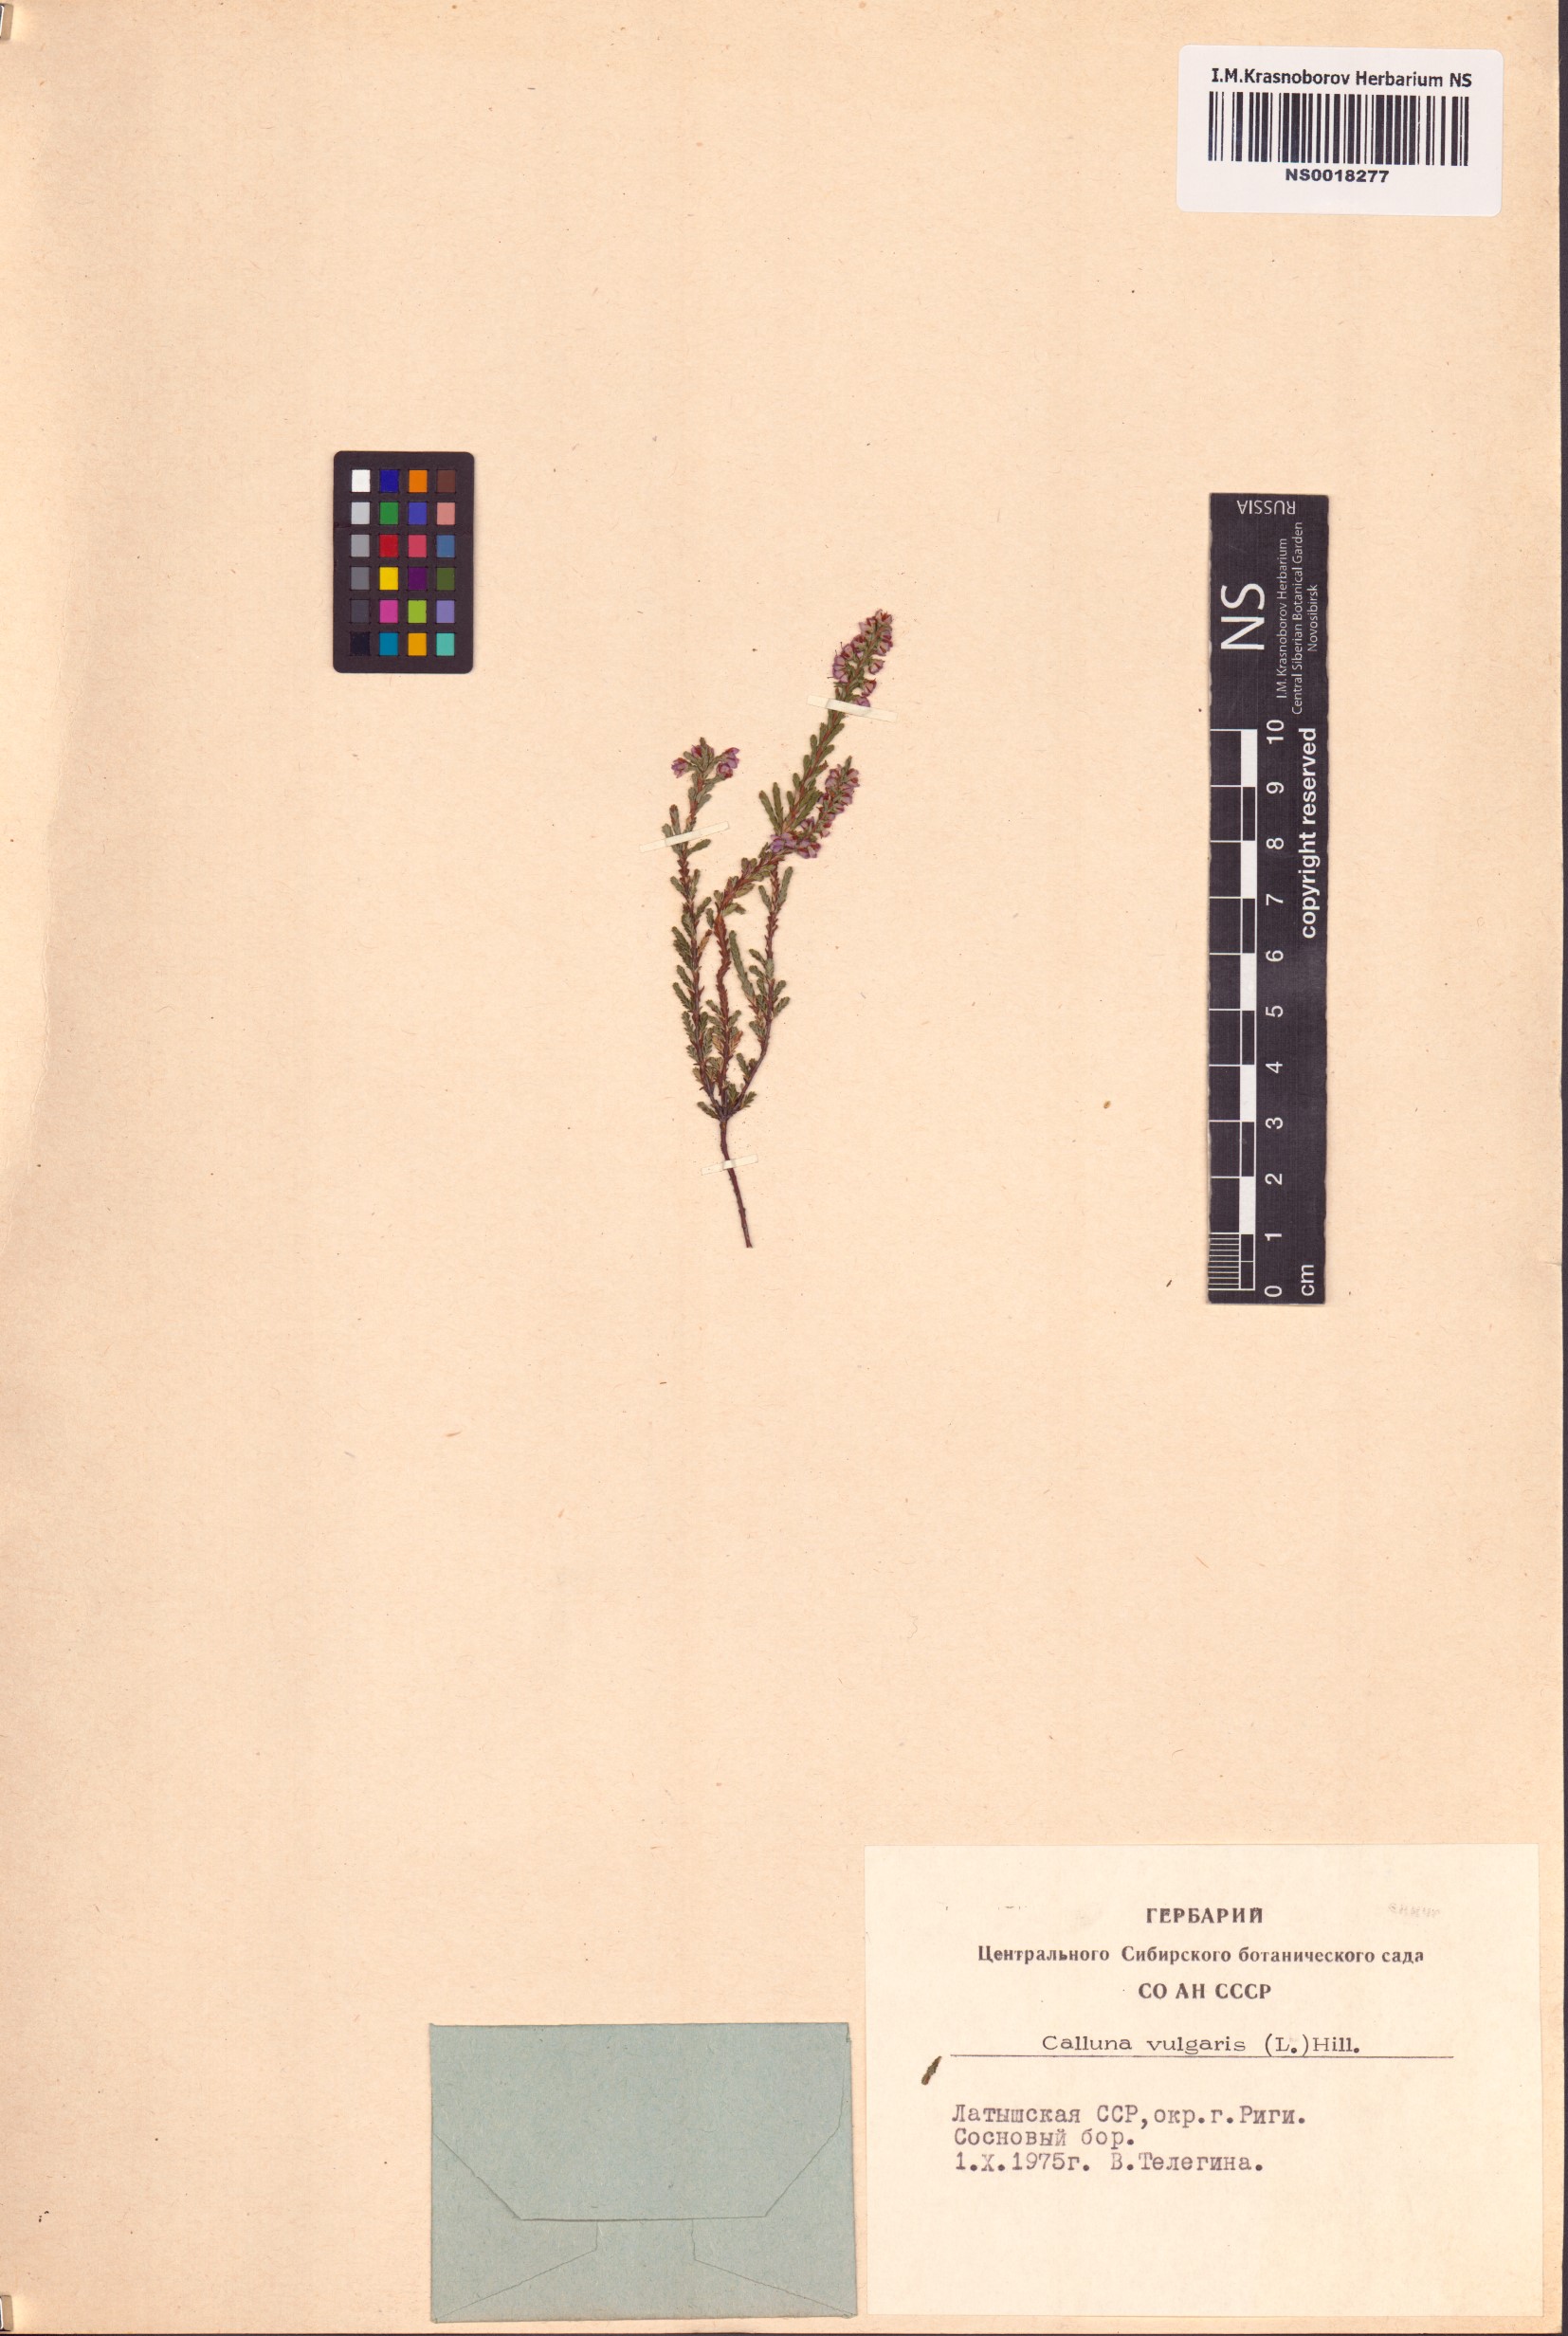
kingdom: Plantae
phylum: Tracheophyta
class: Magnoliopsida
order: Ericales
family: Ericaceae
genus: Calluna
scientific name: Calluna vulgaris
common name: Heather
